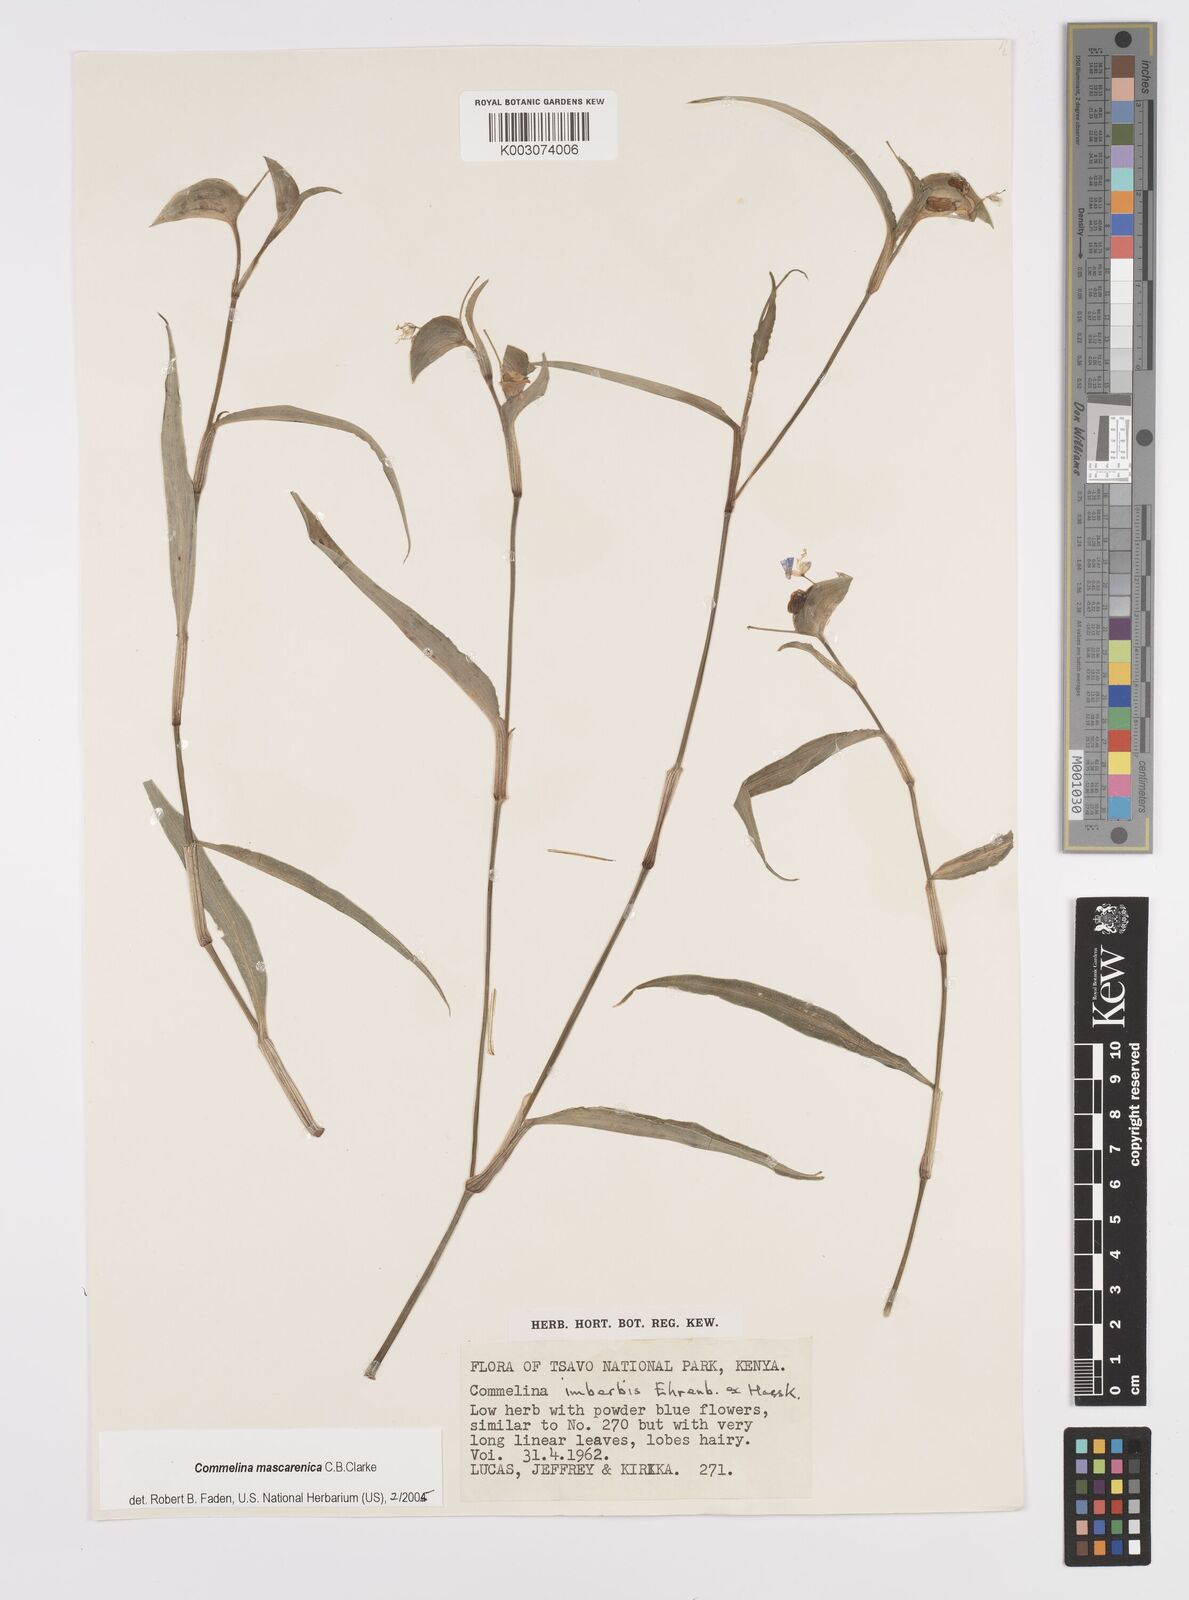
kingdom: Plantae
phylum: Tracheophyta
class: Liliopsida
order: Commelinales
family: Commelinaceae
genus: Commelina
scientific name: Commelina mascarenica
